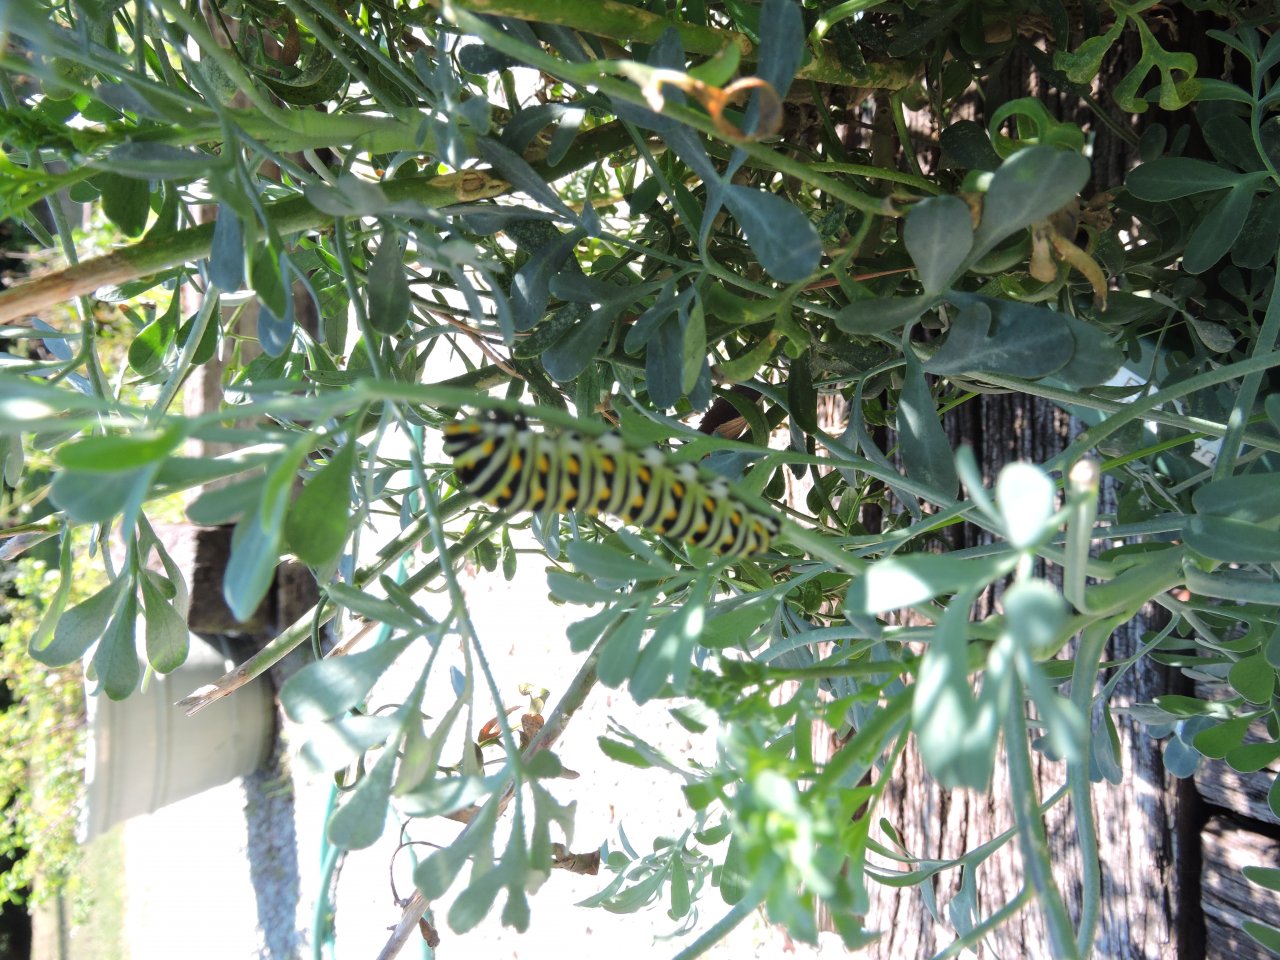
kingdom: Animalia
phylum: Arthropoda
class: Insecta
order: Lepidoptera
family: Papilionidae
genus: Papilio
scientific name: Papilio polyxenes
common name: Black Swallowtail
